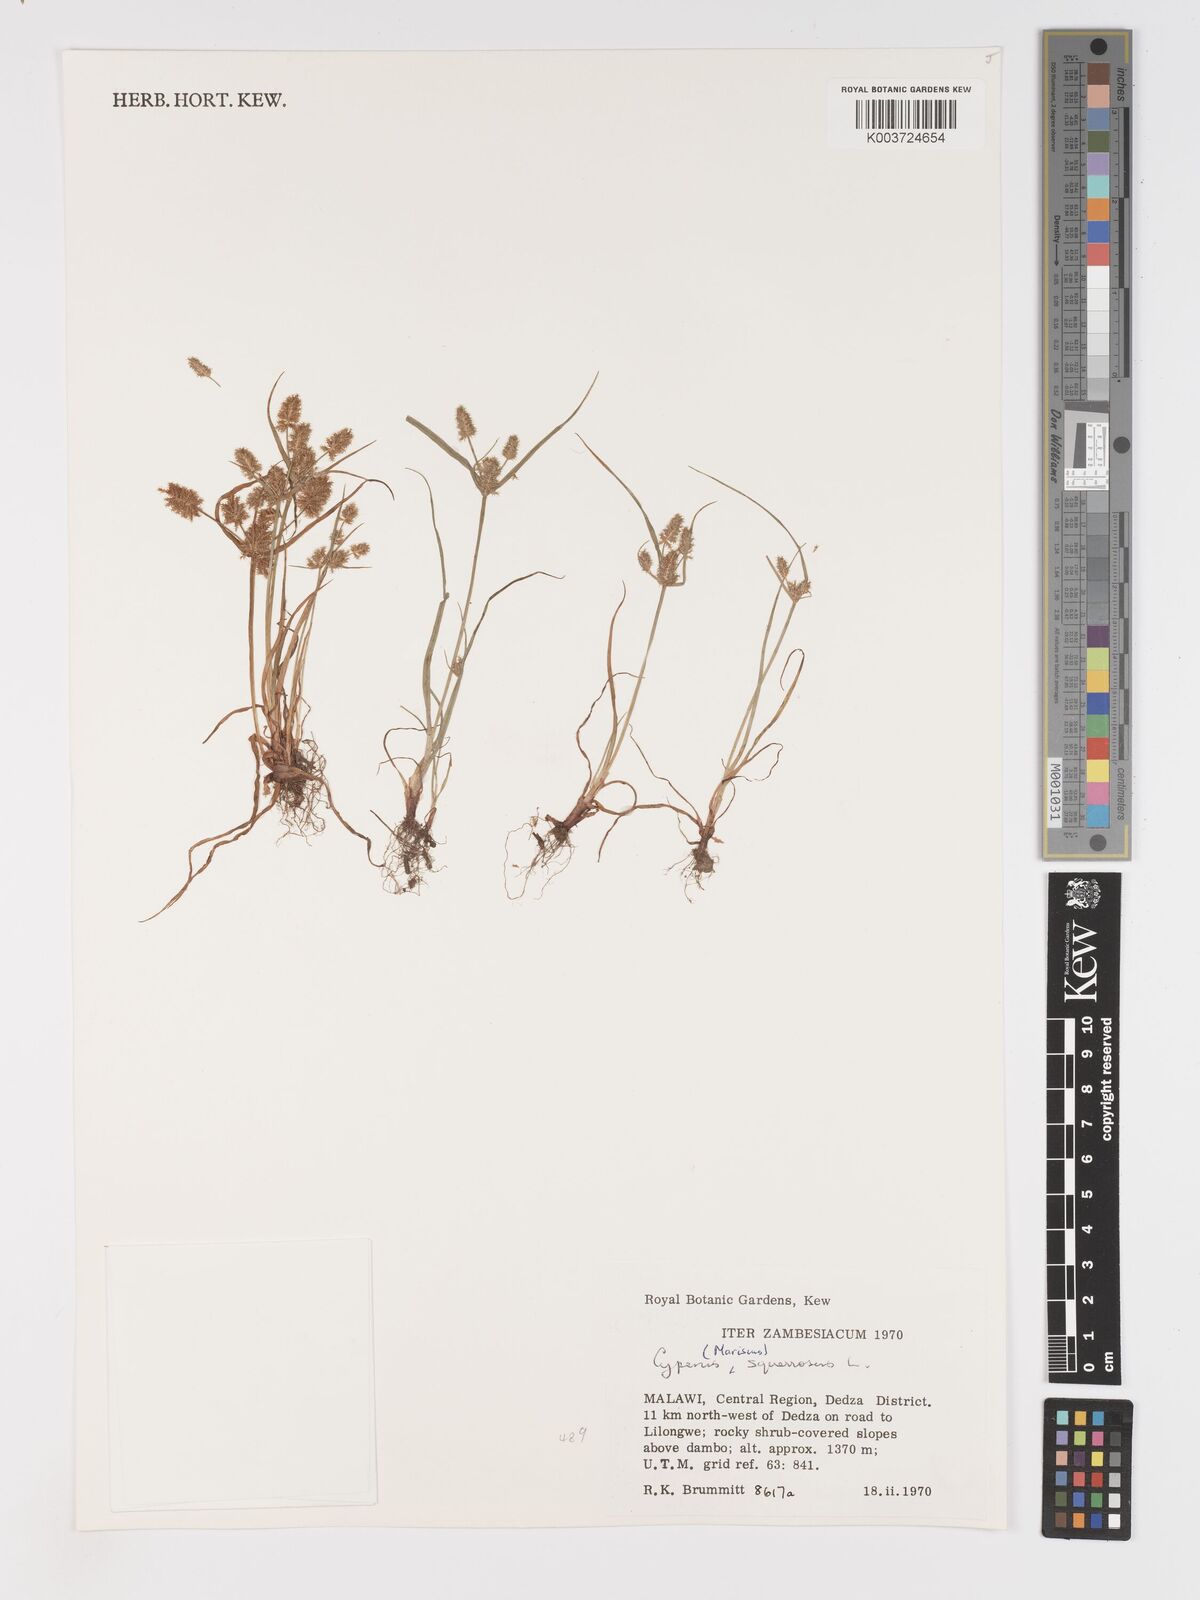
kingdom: Plantae
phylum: Tracheophyta
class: Liliopsida
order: Poales
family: Cyperaceae
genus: Cyperus
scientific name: Cyperus squarrosus
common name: Awned cyperus
